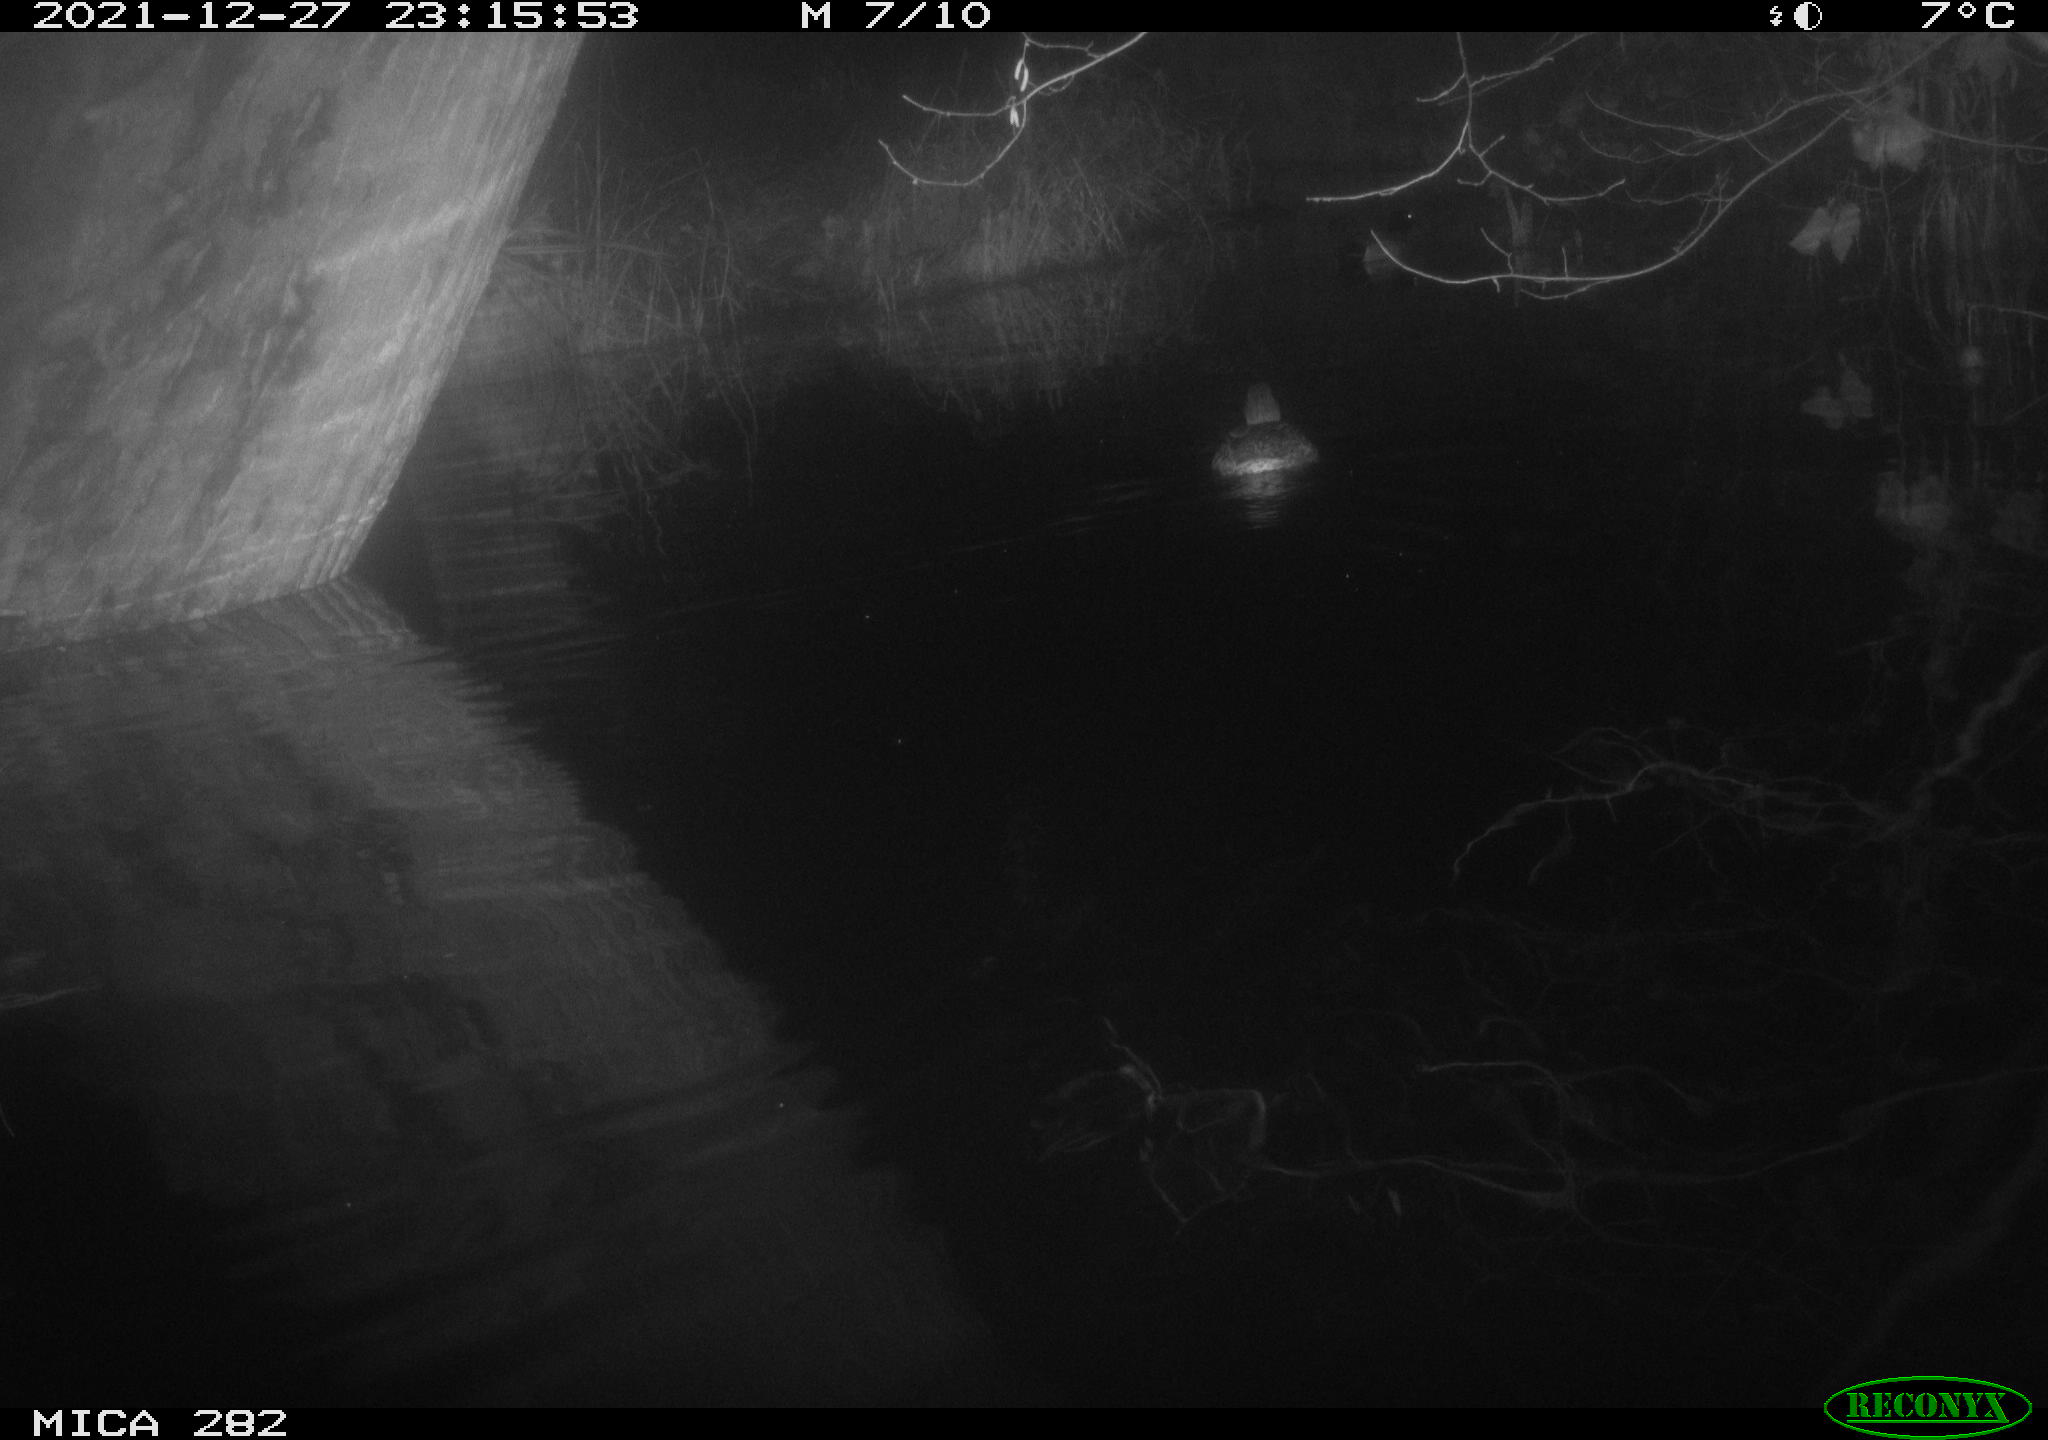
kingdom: Animalia
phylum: Chordata
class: Aves
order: Anseriformes
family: Anatidae
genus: Anas
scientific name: Anas platyrhynchos
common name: Mallard
